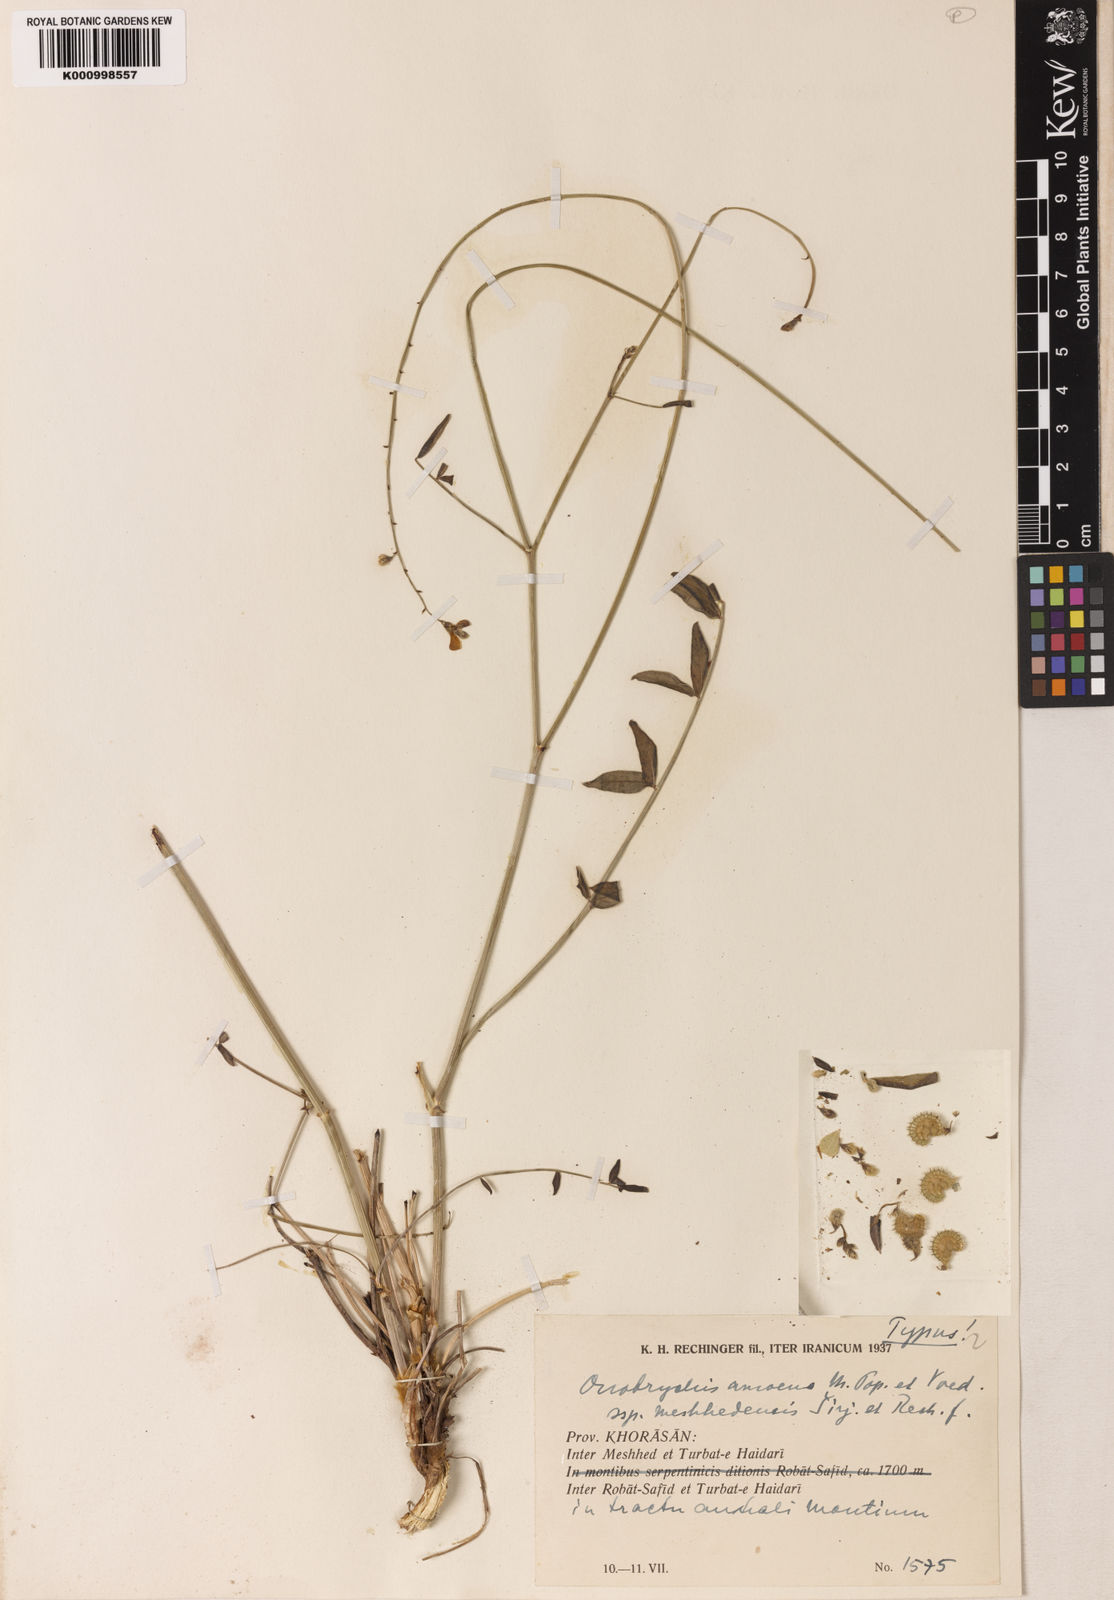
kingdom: Plantae
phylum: Tracheophyta
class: Magnoliopsida
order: Fabales
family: Fabaceae
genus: Onobrychis
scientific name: Onobrychis meshhedensis
